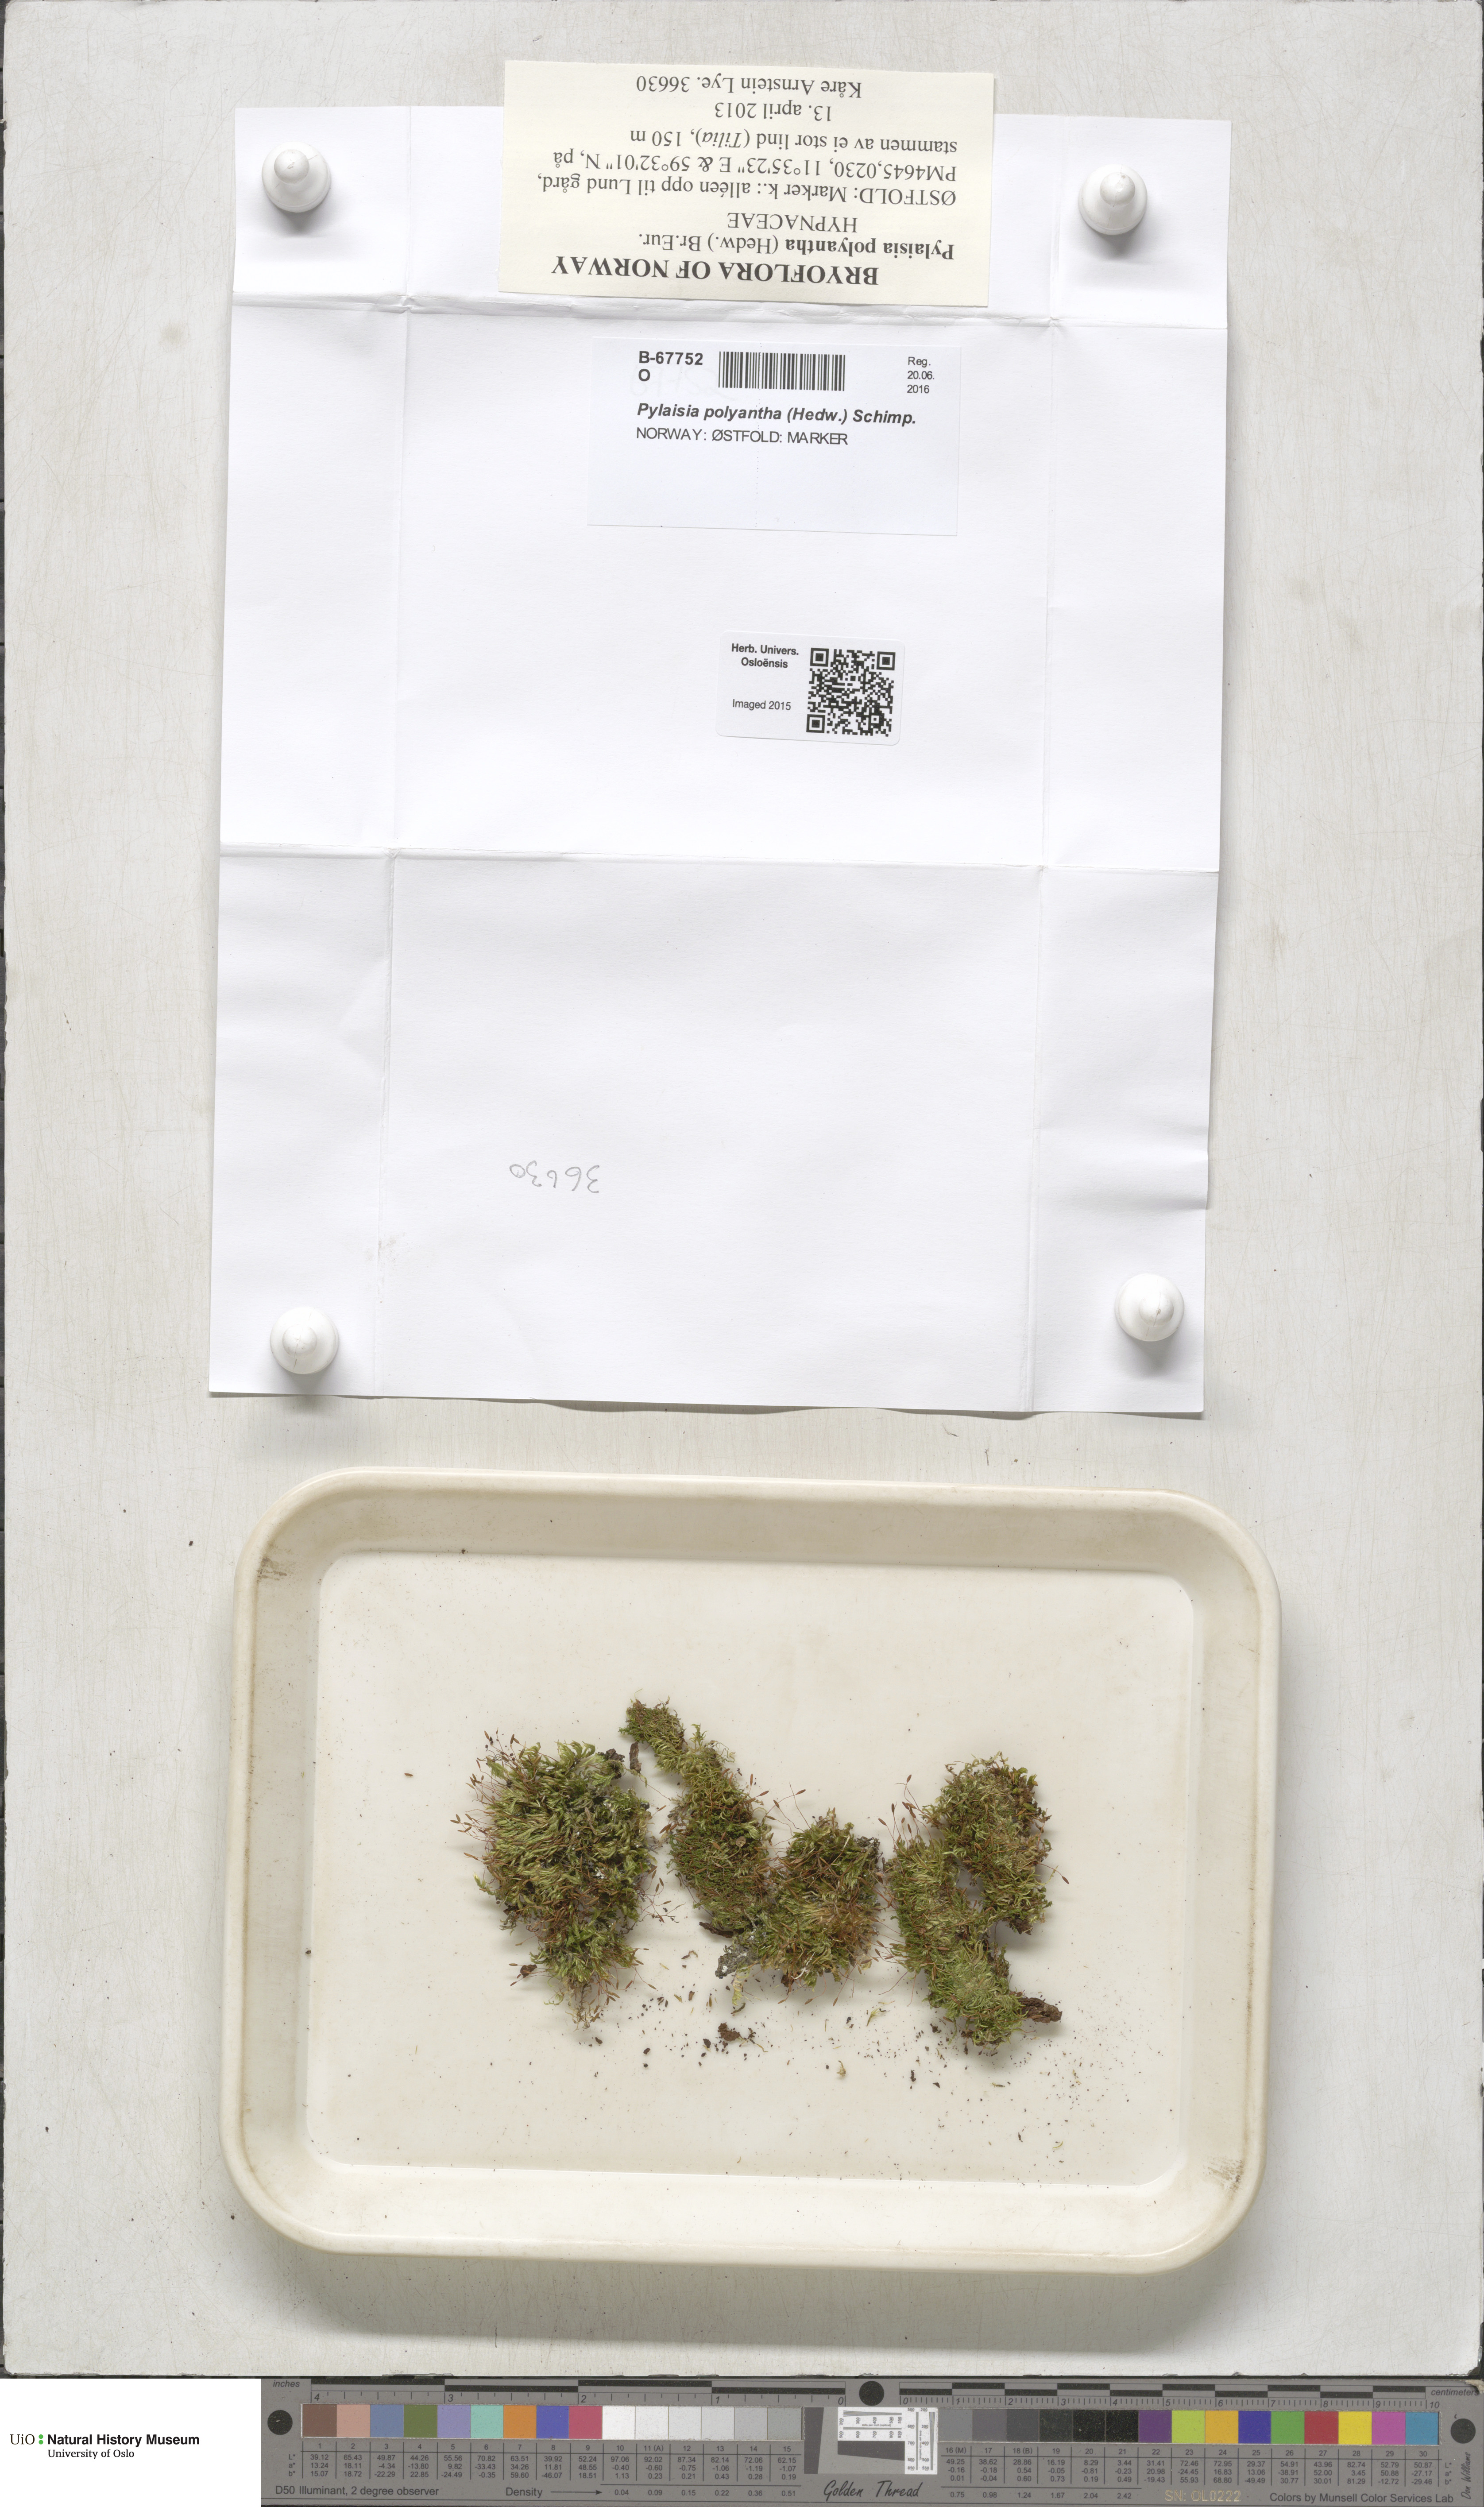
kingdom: Plantae
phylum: Bryophyta
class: Bryopsida
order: Hypnales
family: Pylaisiaceae
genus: Pylaisia
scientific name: Pylaisia polyantha
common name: Many-flowered leskea
